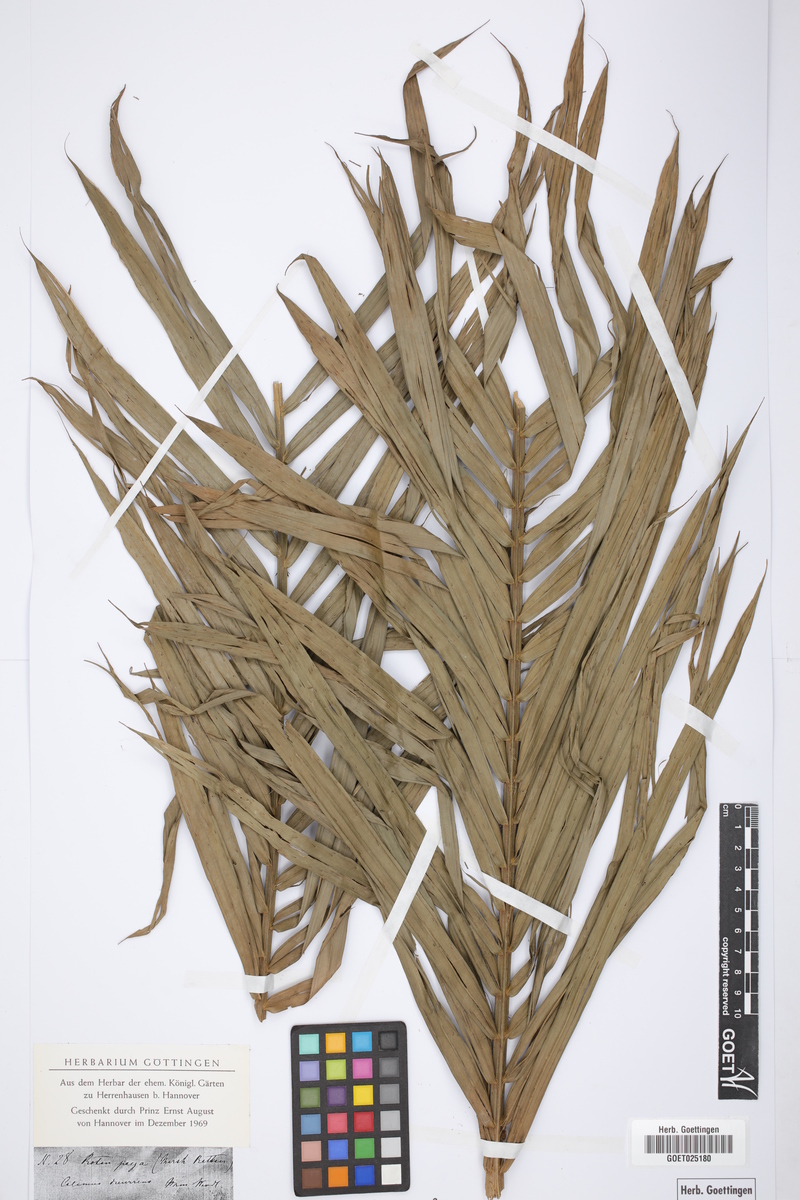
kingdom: Plantae
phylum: Tracheophyta
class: Liliopsida
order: Arecales
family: Arecaceae
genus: Calamus
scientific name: Calamus
